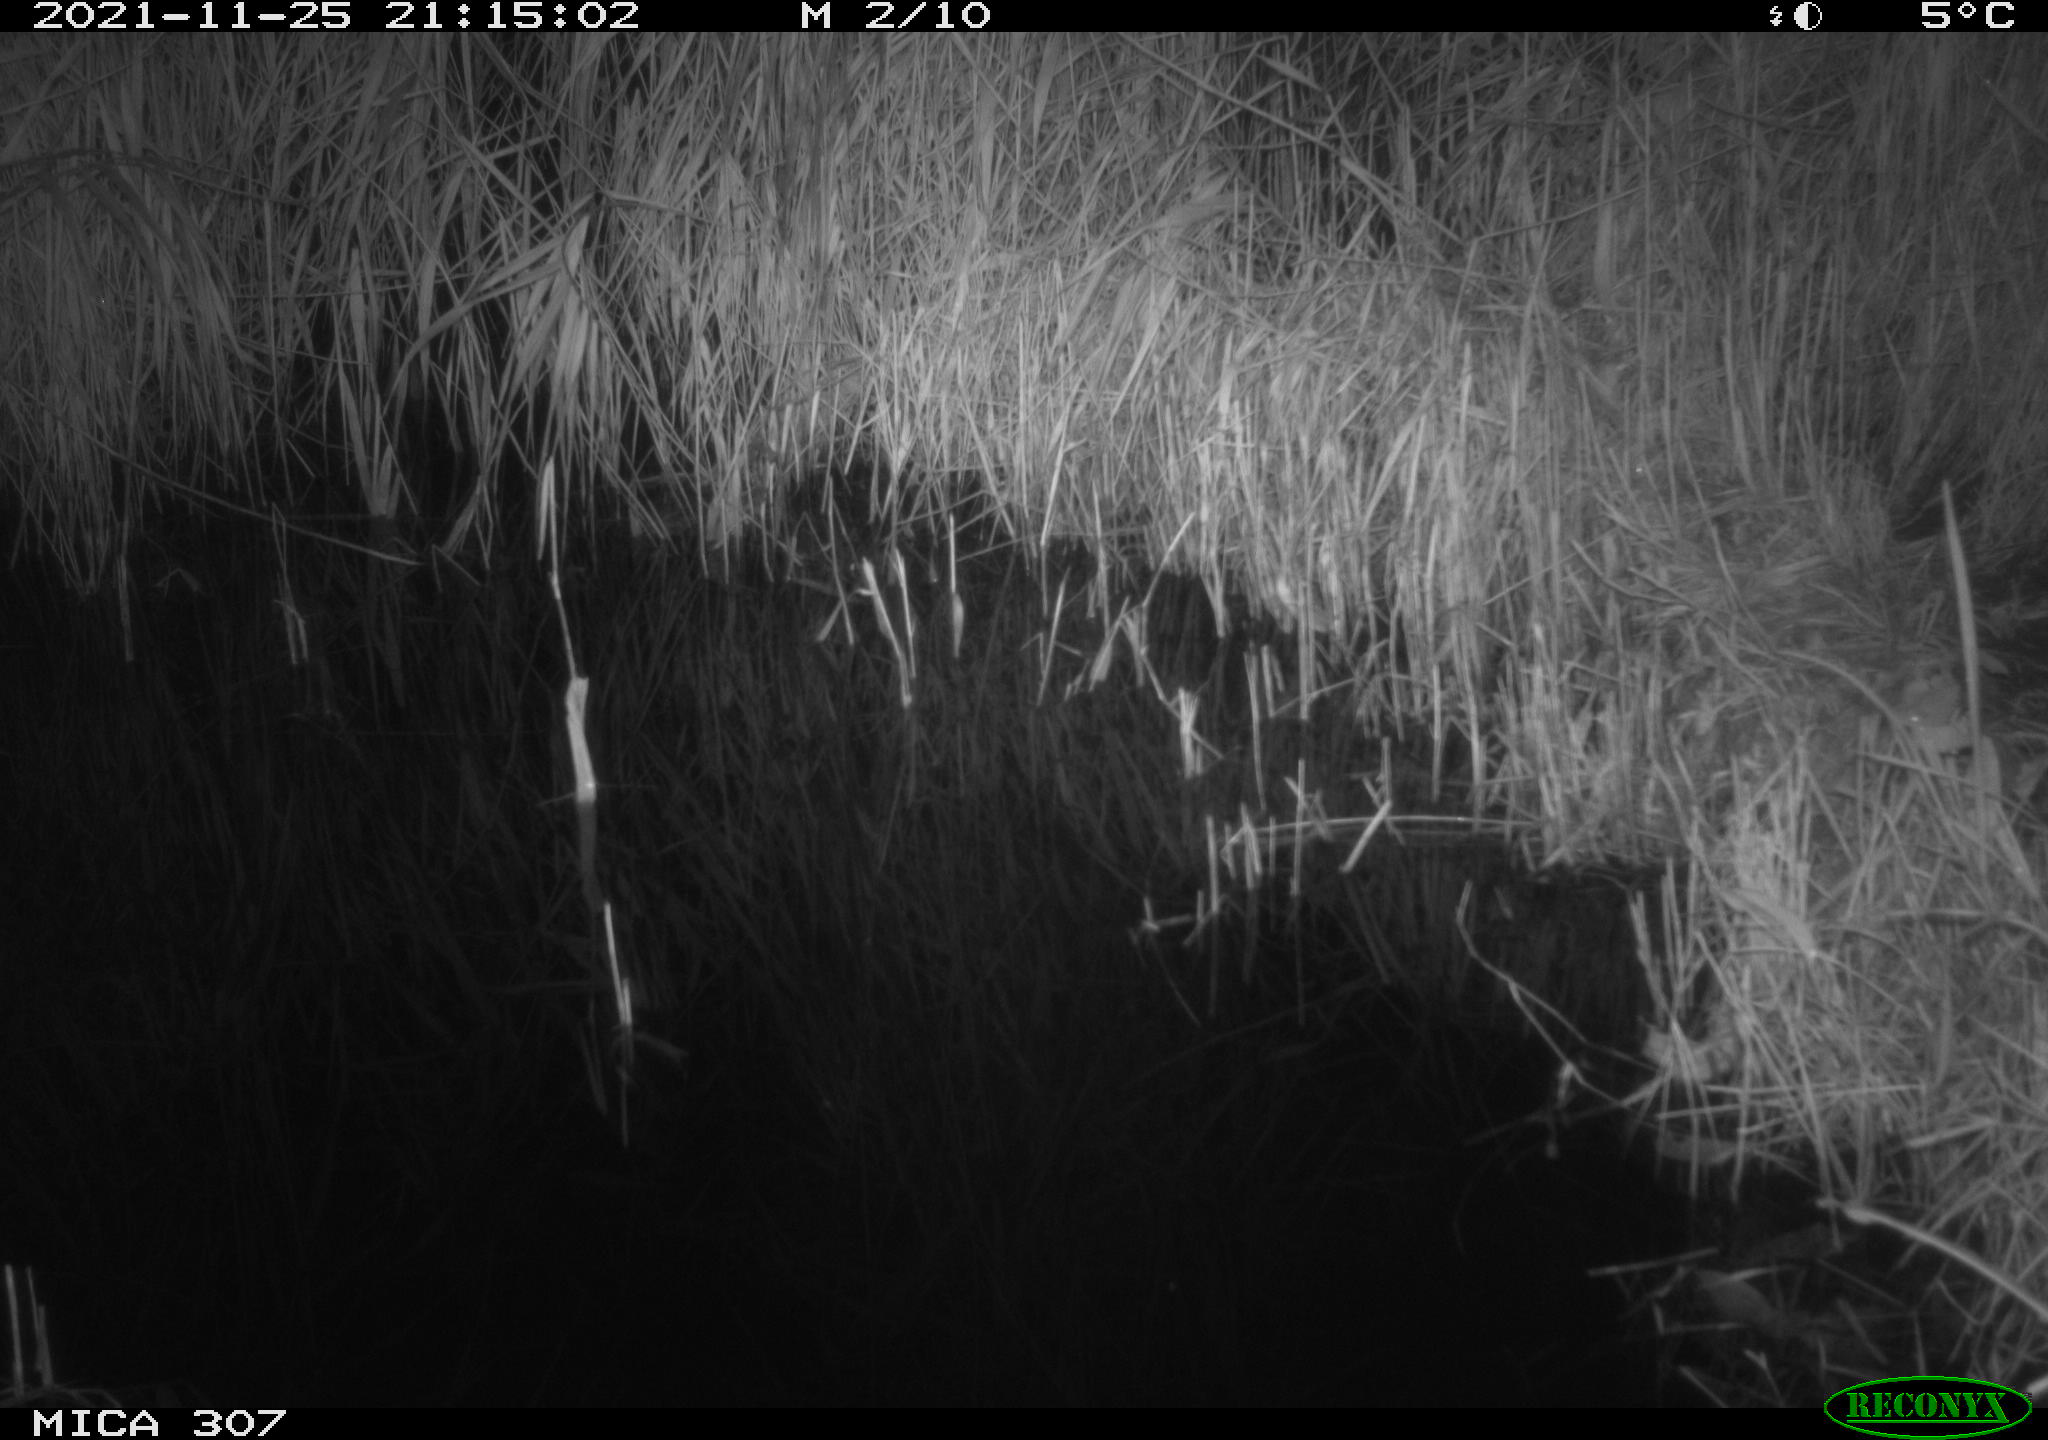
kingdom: Animalia
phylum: Chordata
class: Mammalia
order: Rodentia
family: Muridae
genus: Rattus
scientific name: Rattus norvegicus
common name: Brown rat
